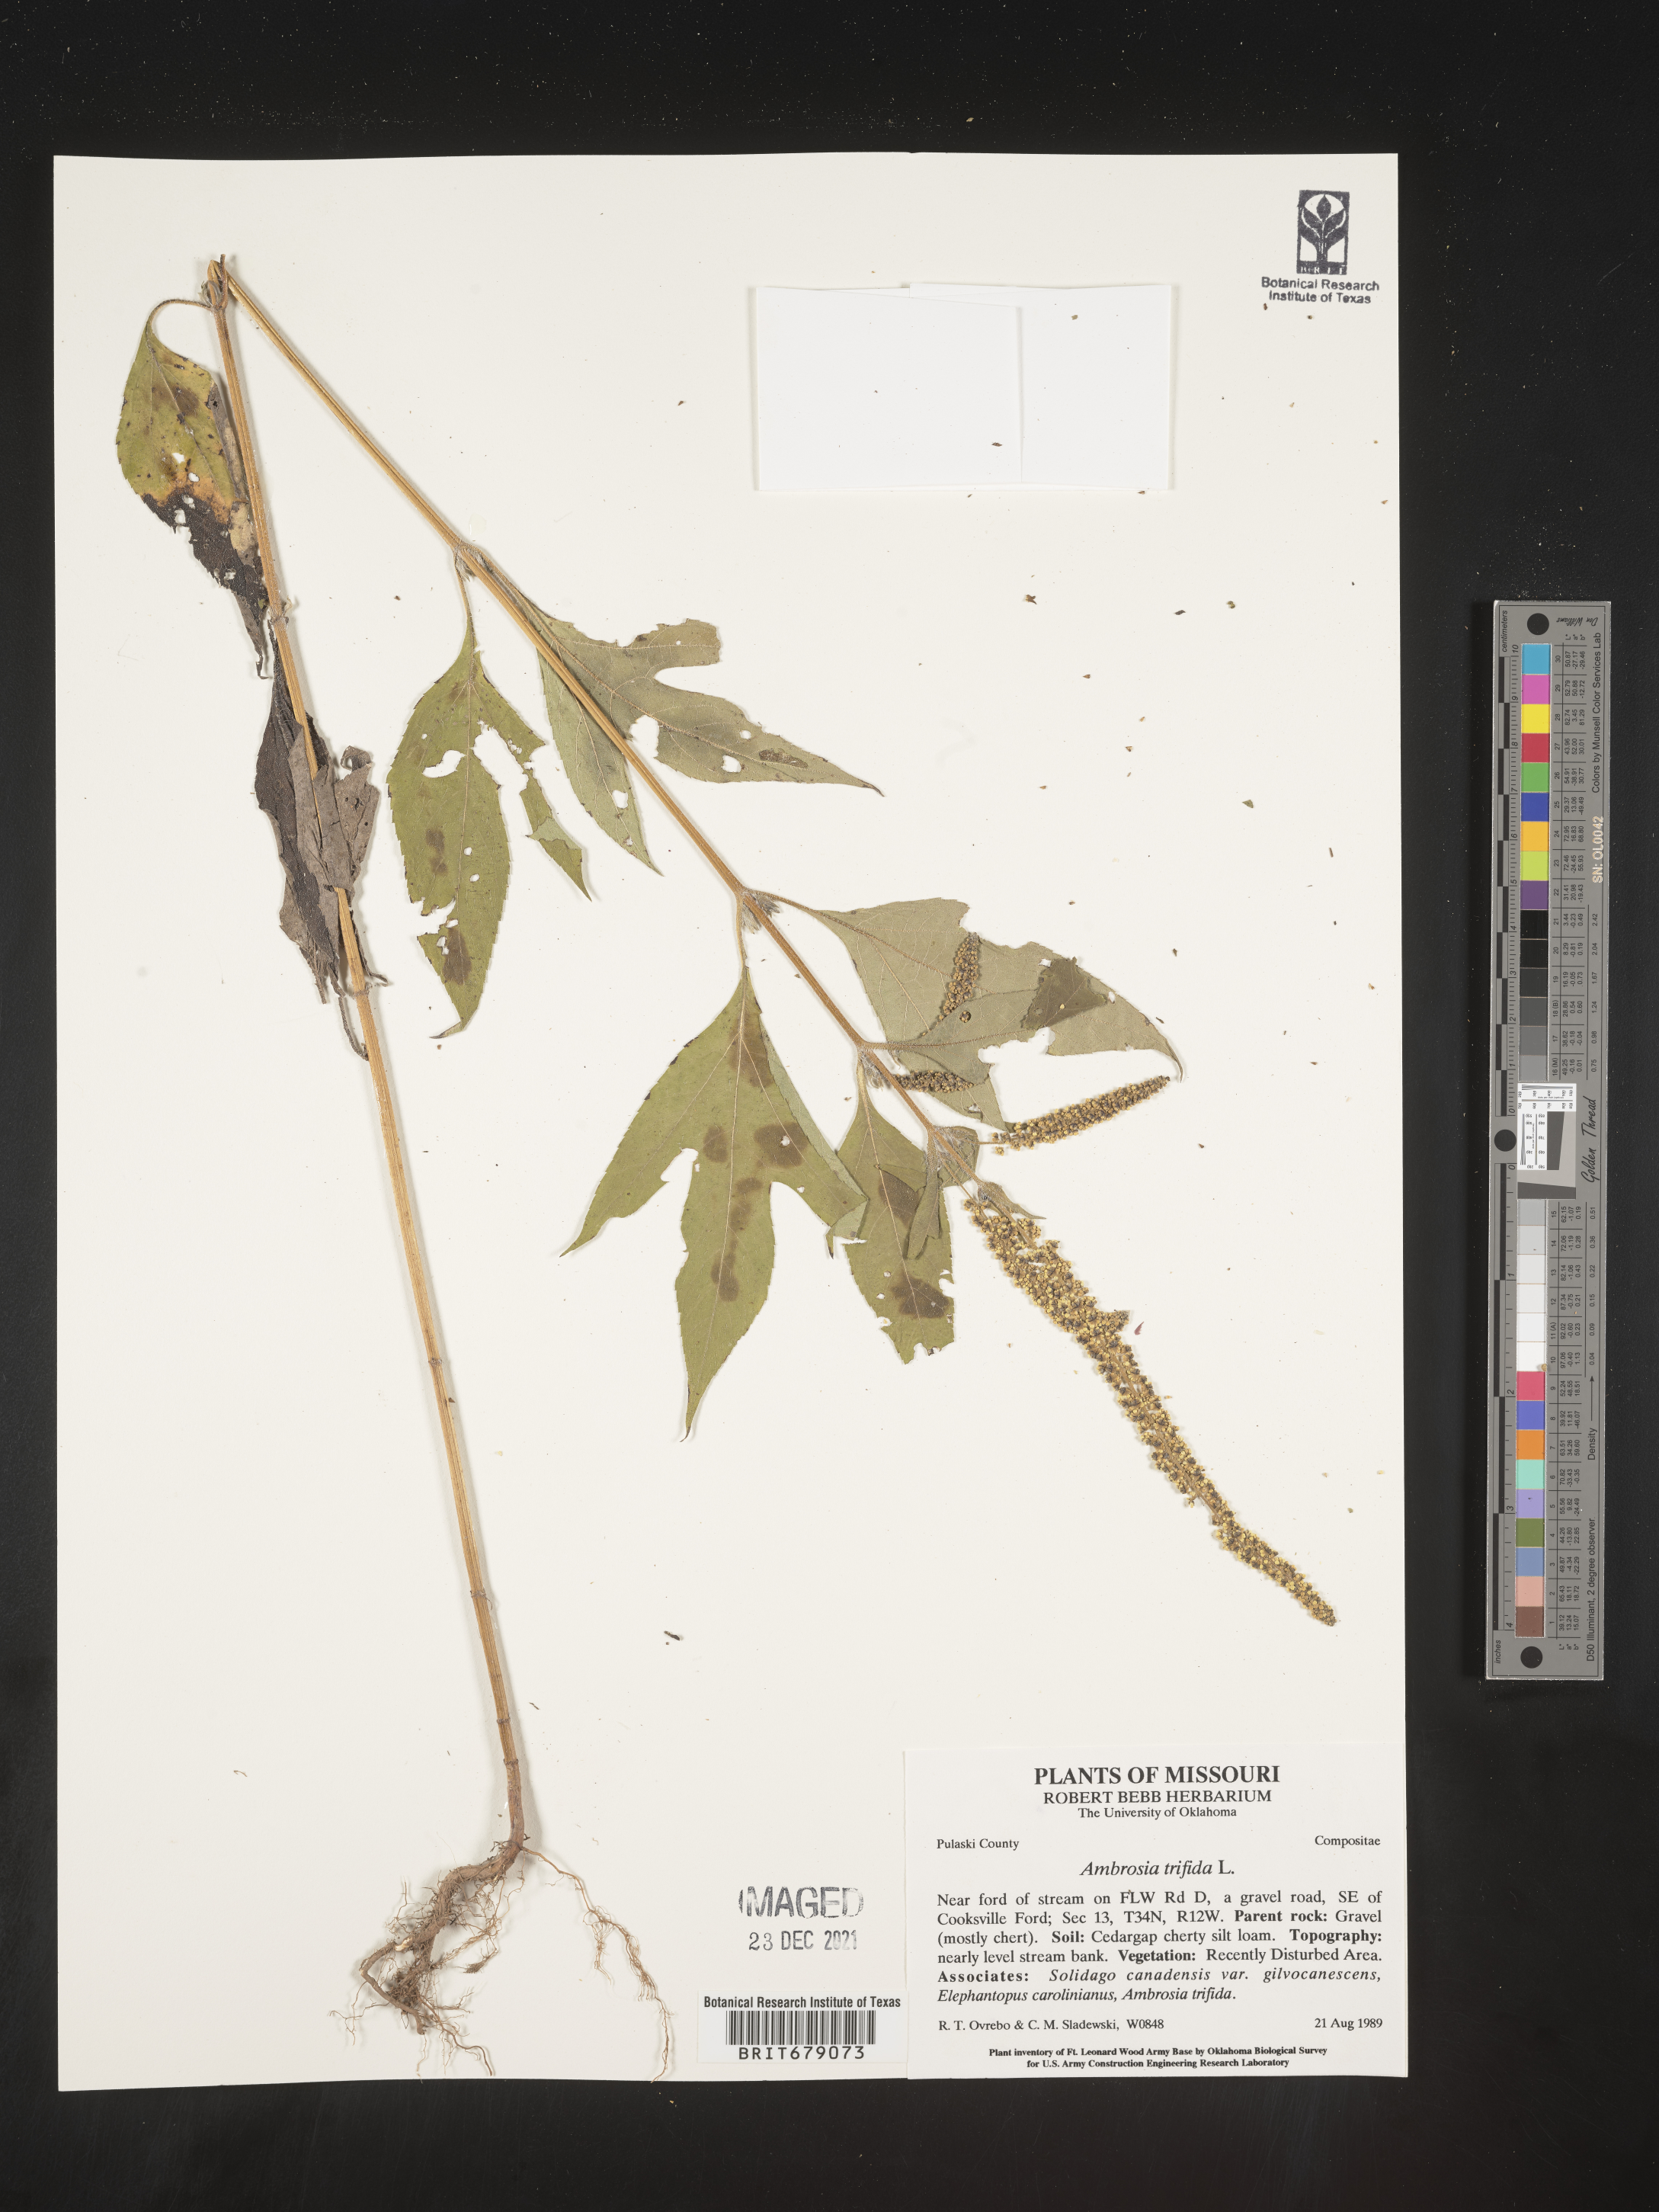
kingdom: Plantae
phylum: Tracheophyta
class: Magnoliopsida
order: Asterales
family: Asteraceae
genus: Ambrosia
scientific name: Ambrosia trifida
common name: Giant ragweed
